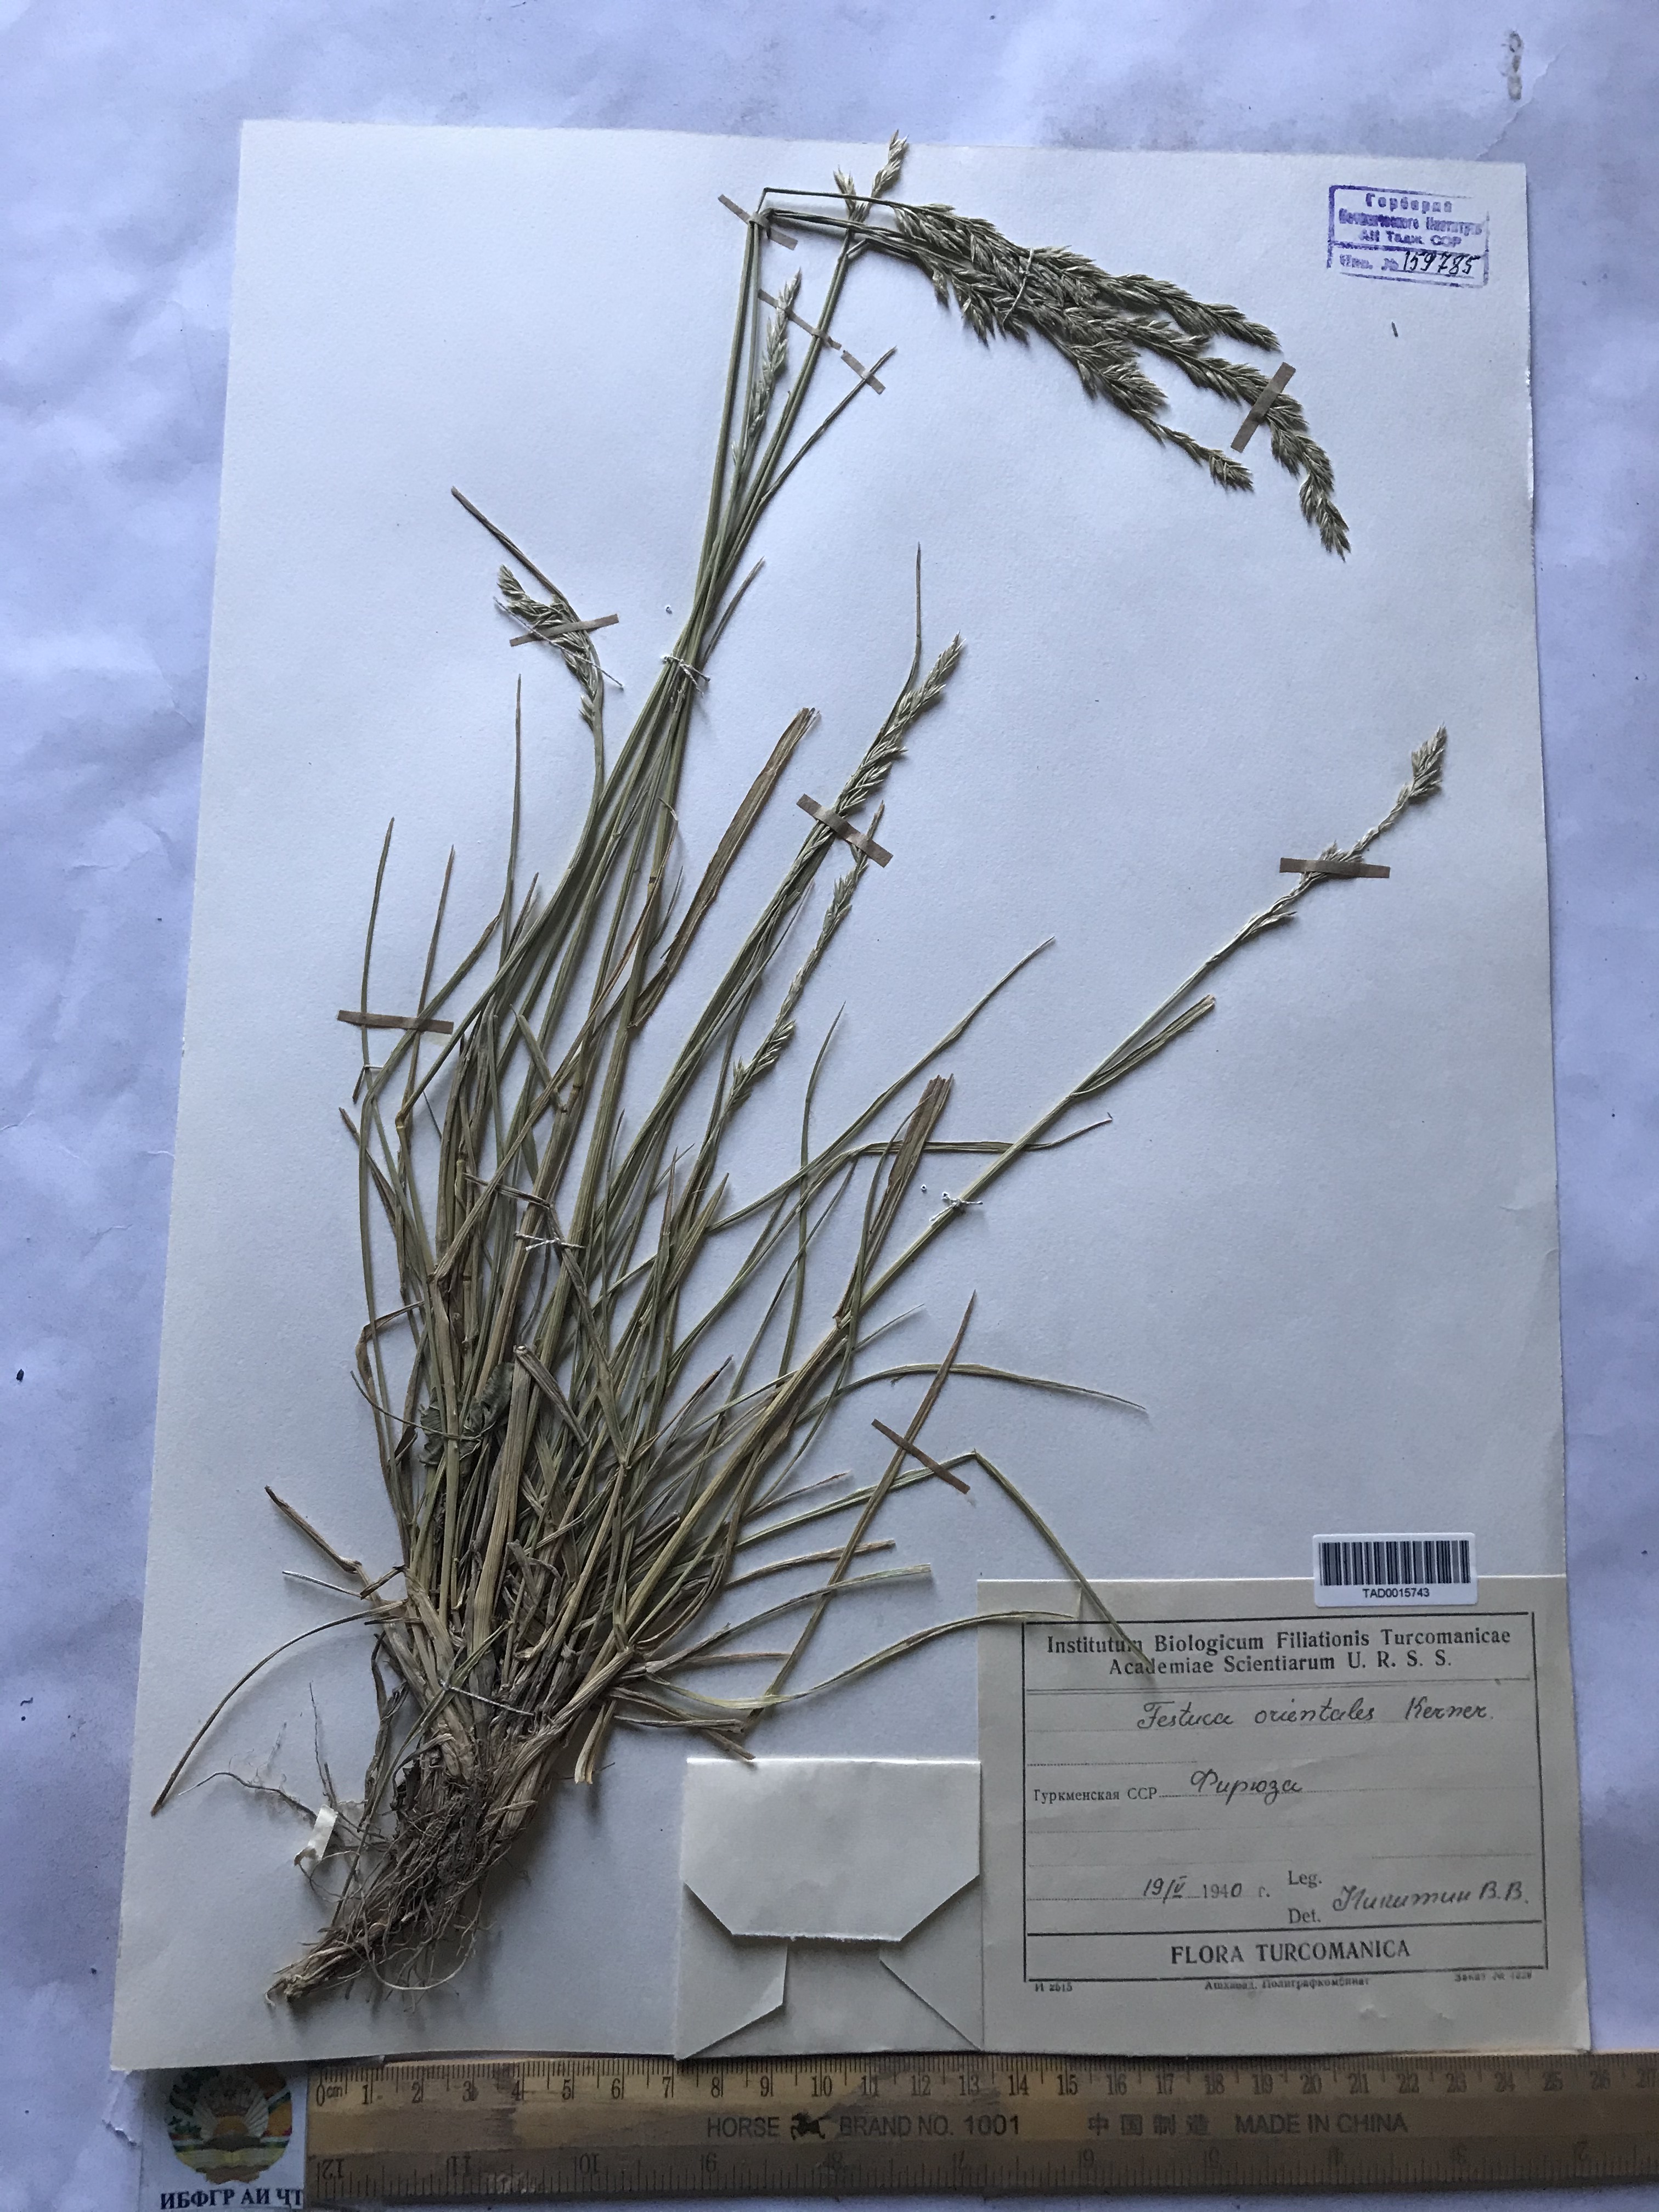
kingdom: Plantae
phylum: Tracheophyta
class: Liliopsida
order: Poales
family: Poaceae
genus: Lolium
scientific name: Lolium arundinaceum
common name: Reed fescue
